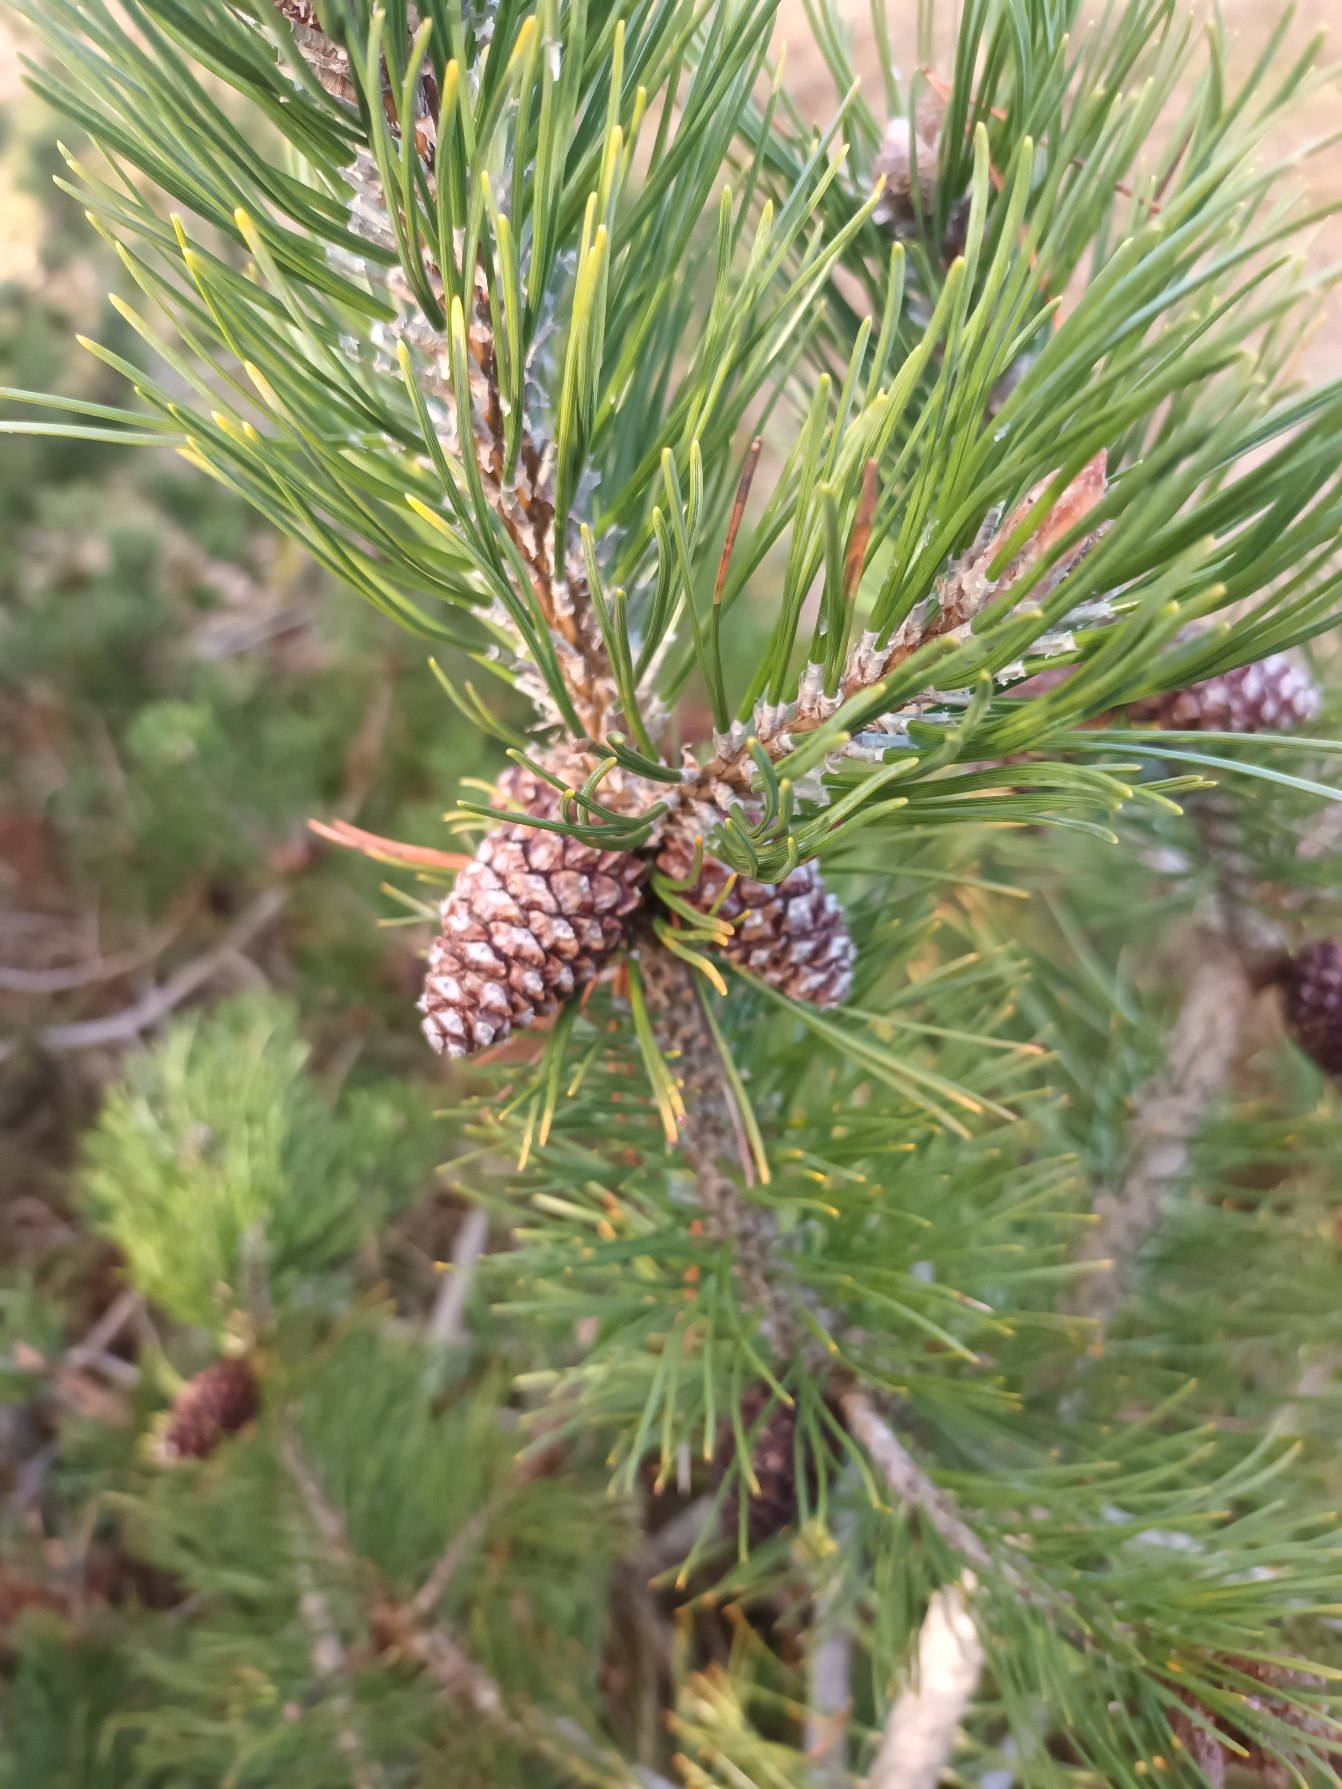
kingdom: Plantae
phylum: Tracheophyta
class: Pinopsida
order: Pinales
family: Pinaceae
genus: Pinus
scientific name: Pinus contorta
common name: Klit-fyr
